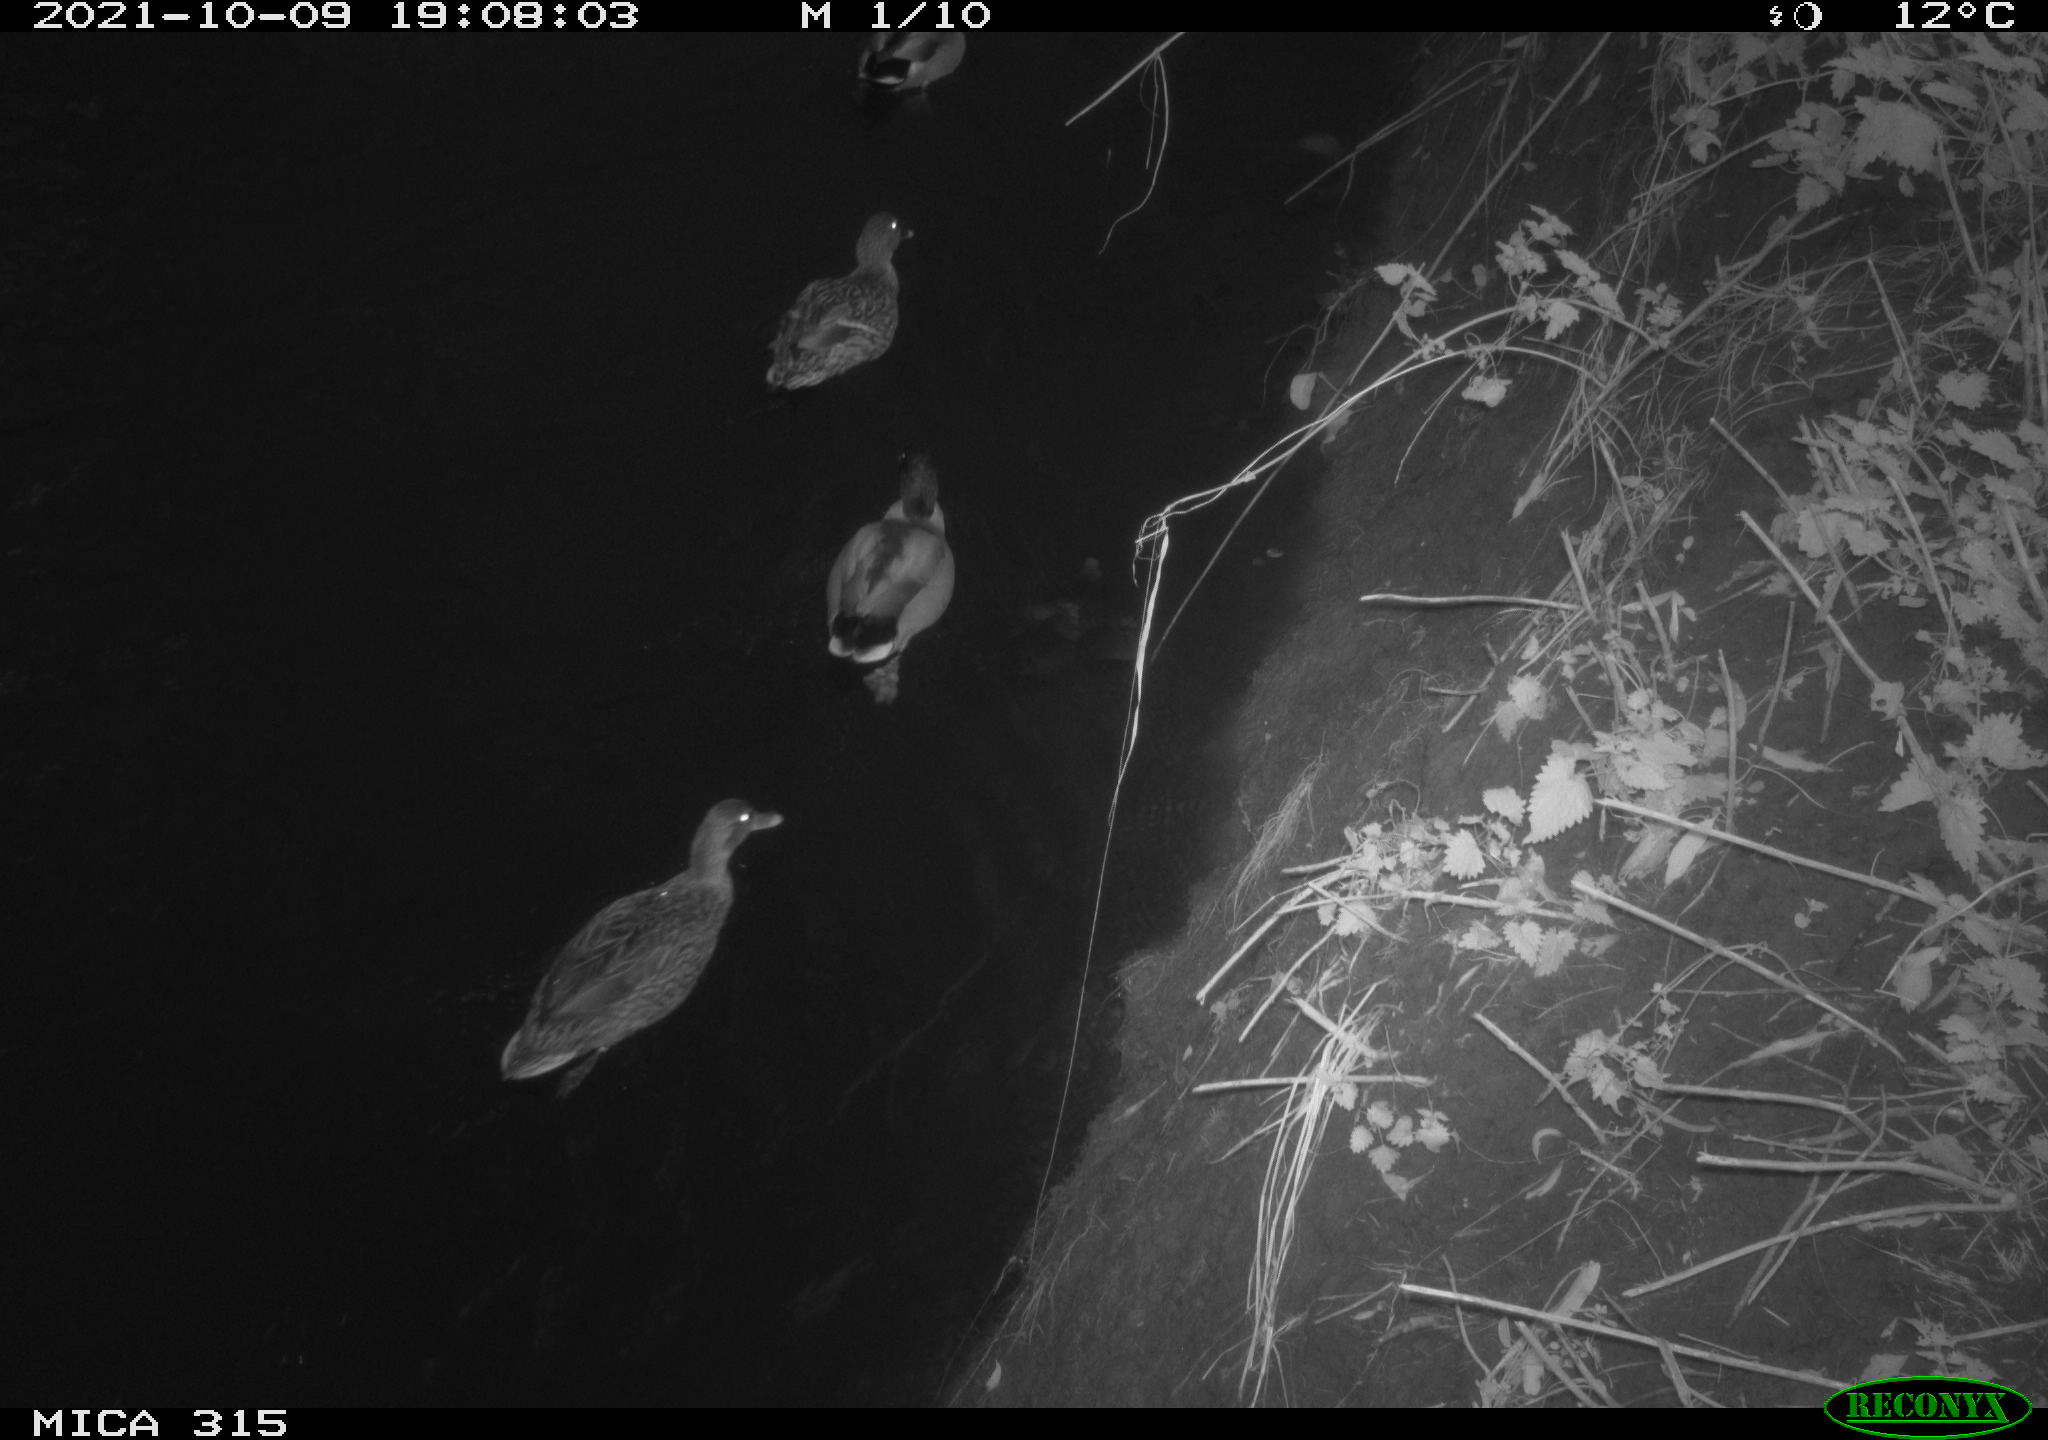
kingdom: Animalia
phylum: Chordata
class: Aves
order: Anseriformes
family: Anatidae
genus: Anas
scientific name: Anas platyrhynchos
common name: Mallard
